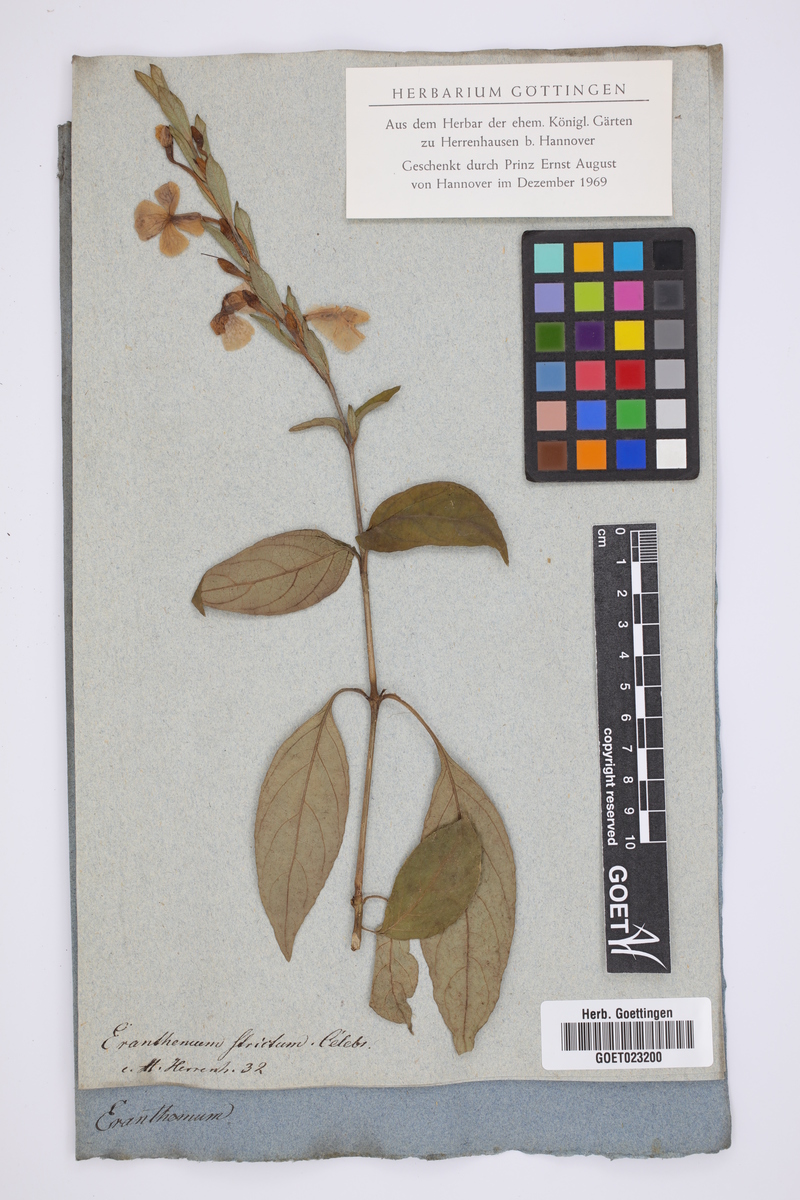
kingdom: Plantae
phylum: Tracheophyta
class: Magnoliopsida
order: Lamiales
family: Acanthaceae
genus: Eranthemum
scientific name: Eranthemum strictum
